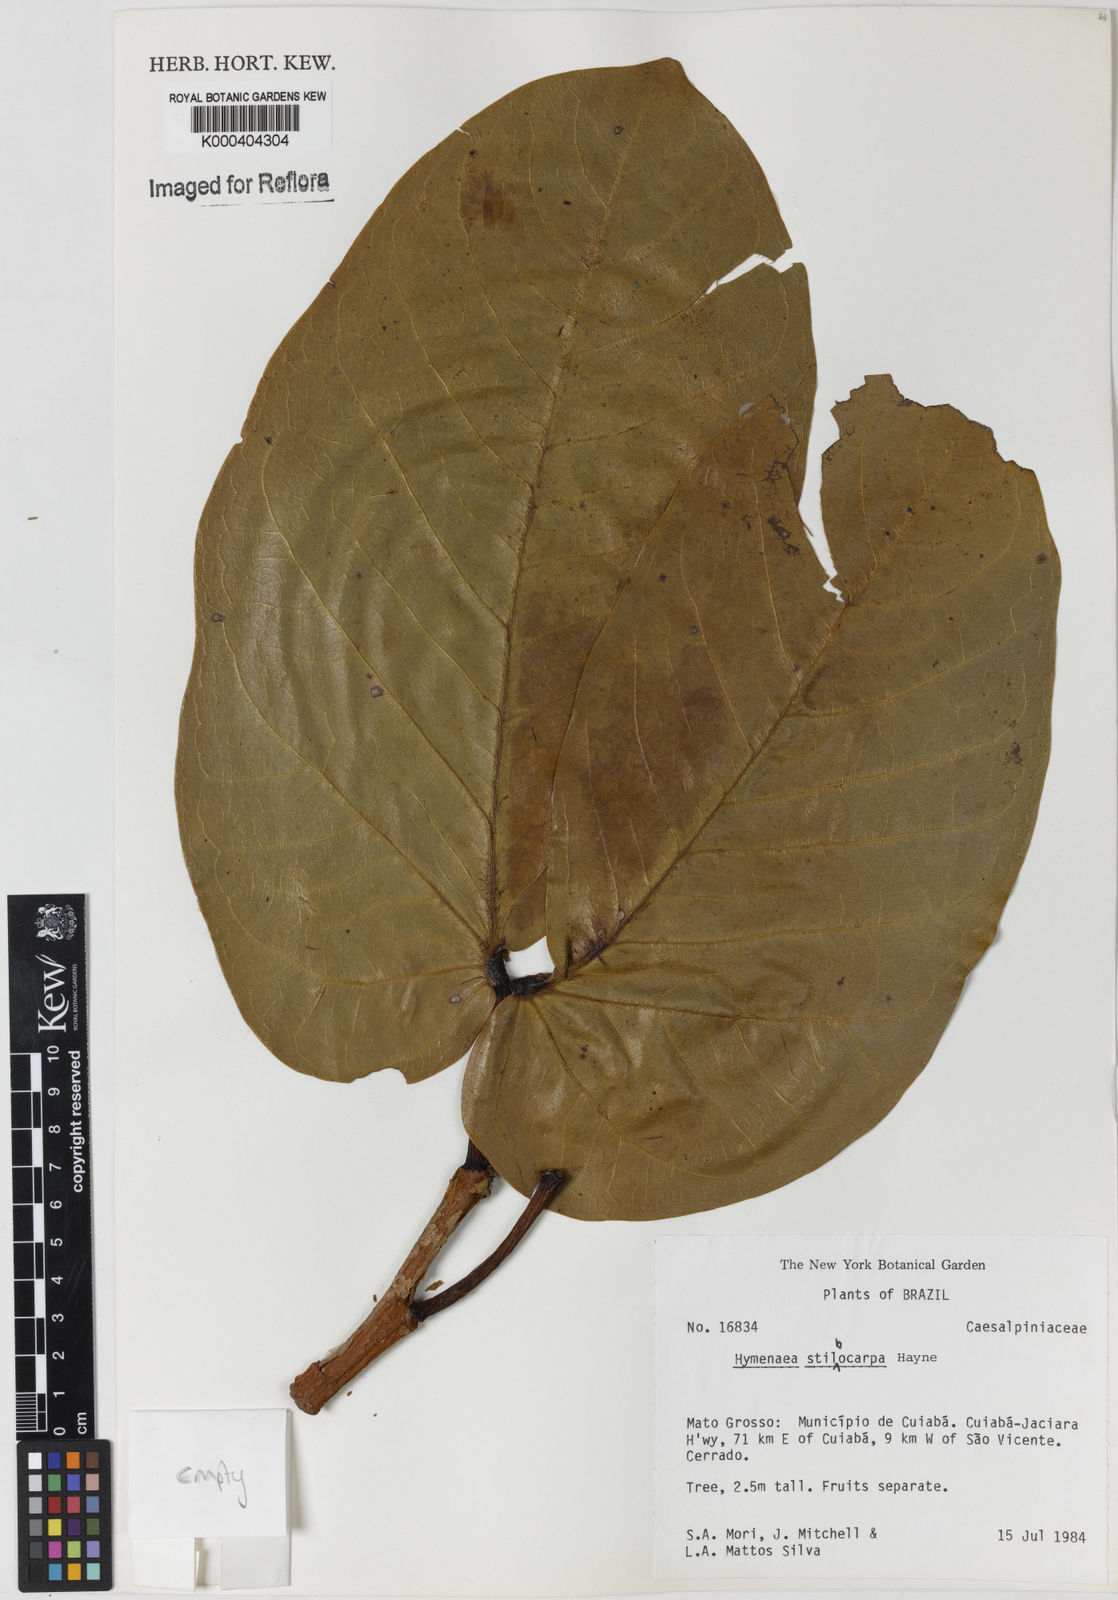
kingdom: Plantae
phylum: Tracheophyta
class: Magnoliopsida
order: Fabales
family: Fabaceae
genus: Hymenaea
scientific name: Hymenaea courbaril
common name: Brazilian copal
